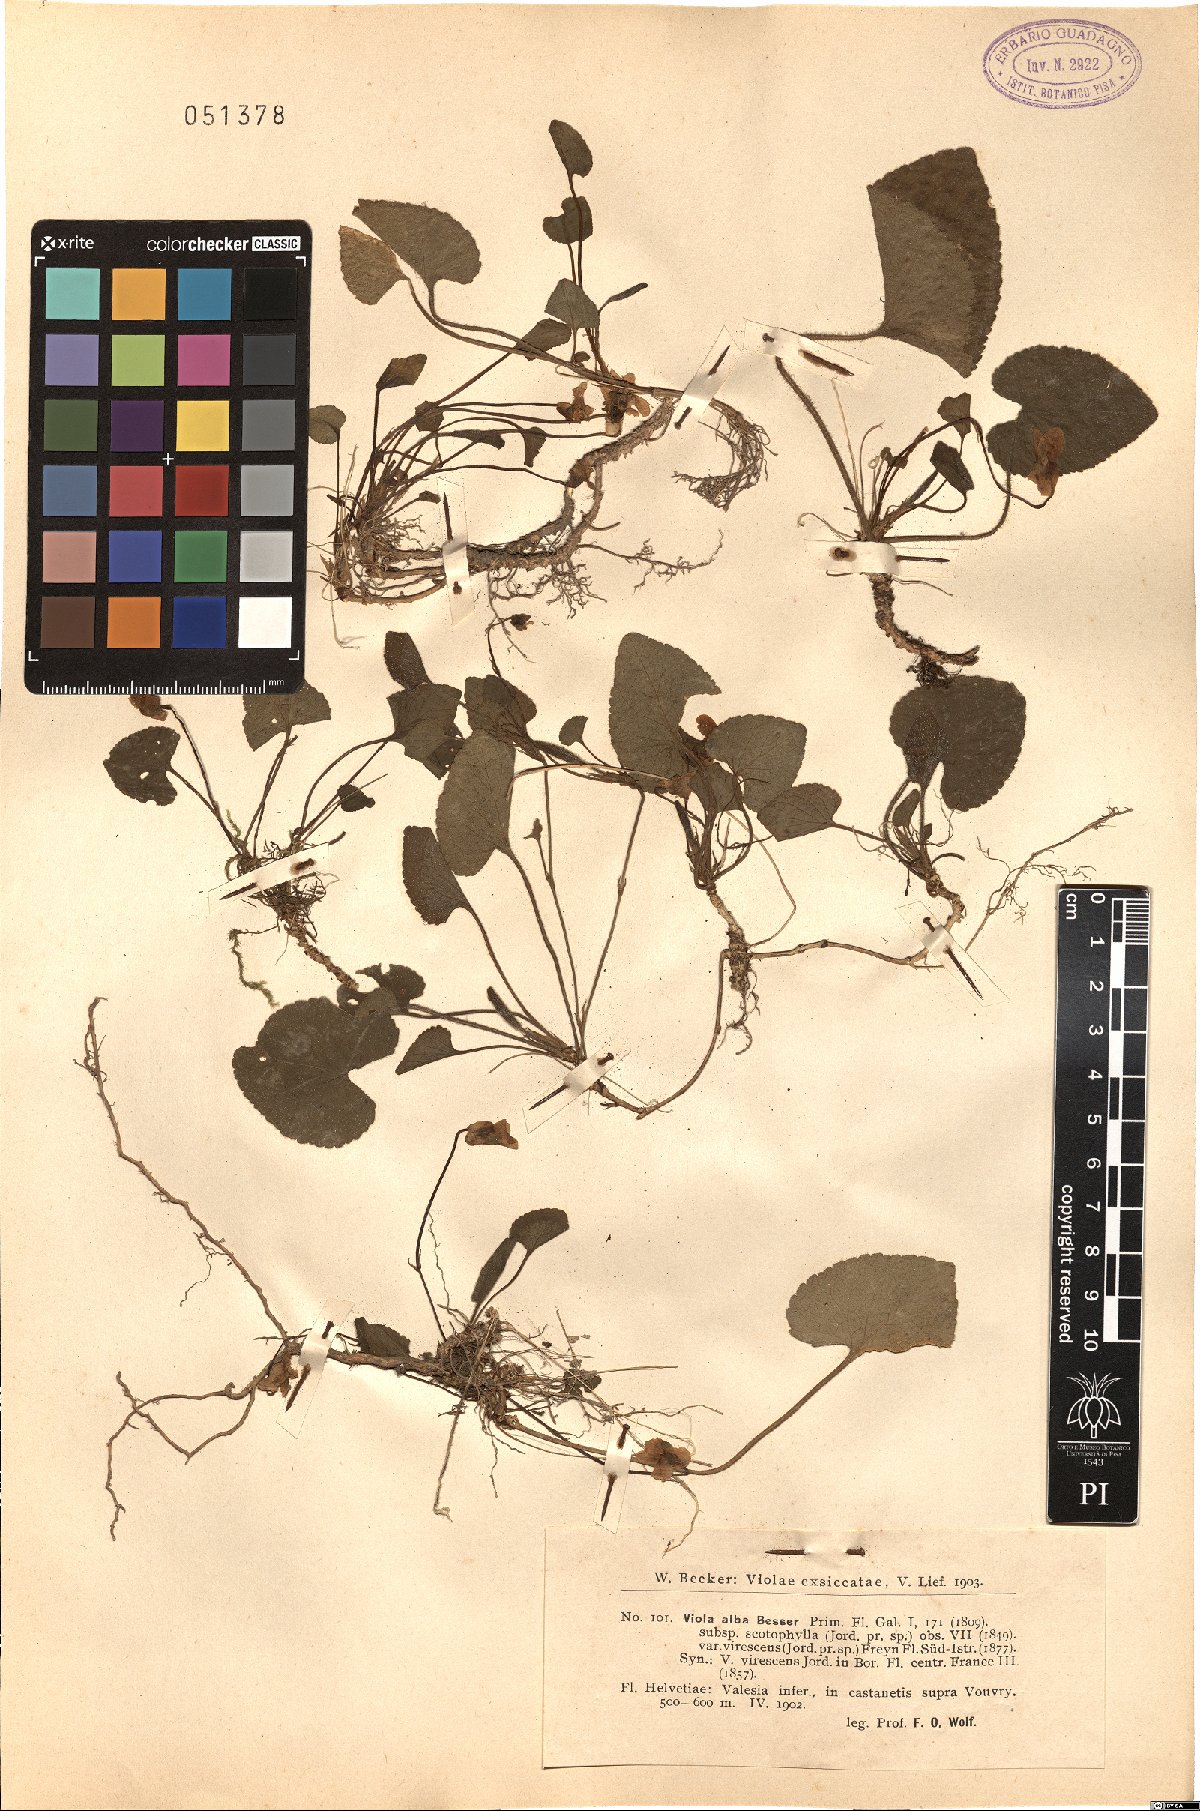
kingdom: Plantae
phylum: Tracheophyta
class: Magnoliopsida
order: Malpighiales
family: Violaceae
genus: Viola
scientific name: Viola alba
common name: White violet
